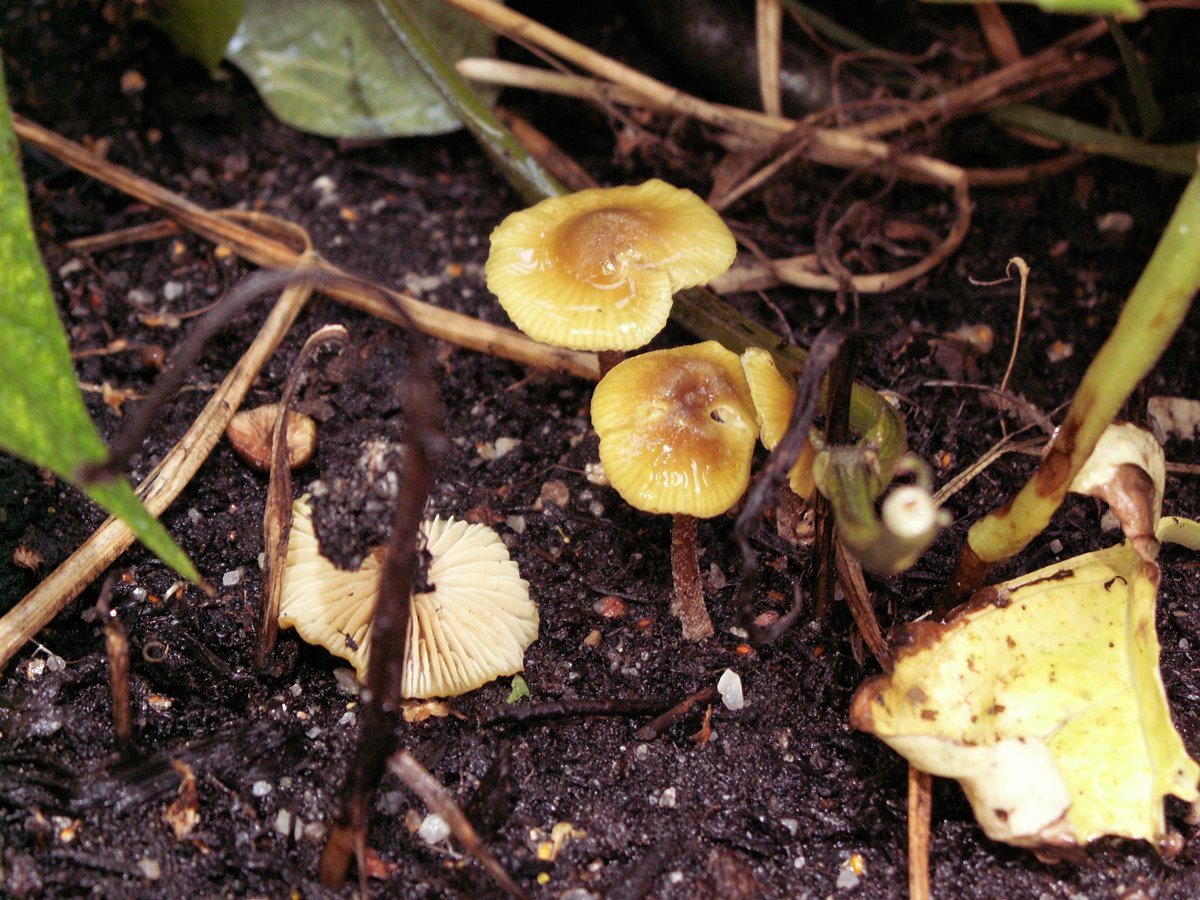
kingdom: Fungi
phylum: Basidiomycota
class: Agaricomycetes
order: Agaricales
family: Entolomataceae
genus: Entoloma
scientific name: Entoloma pleopodium
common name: duftende rødblad
